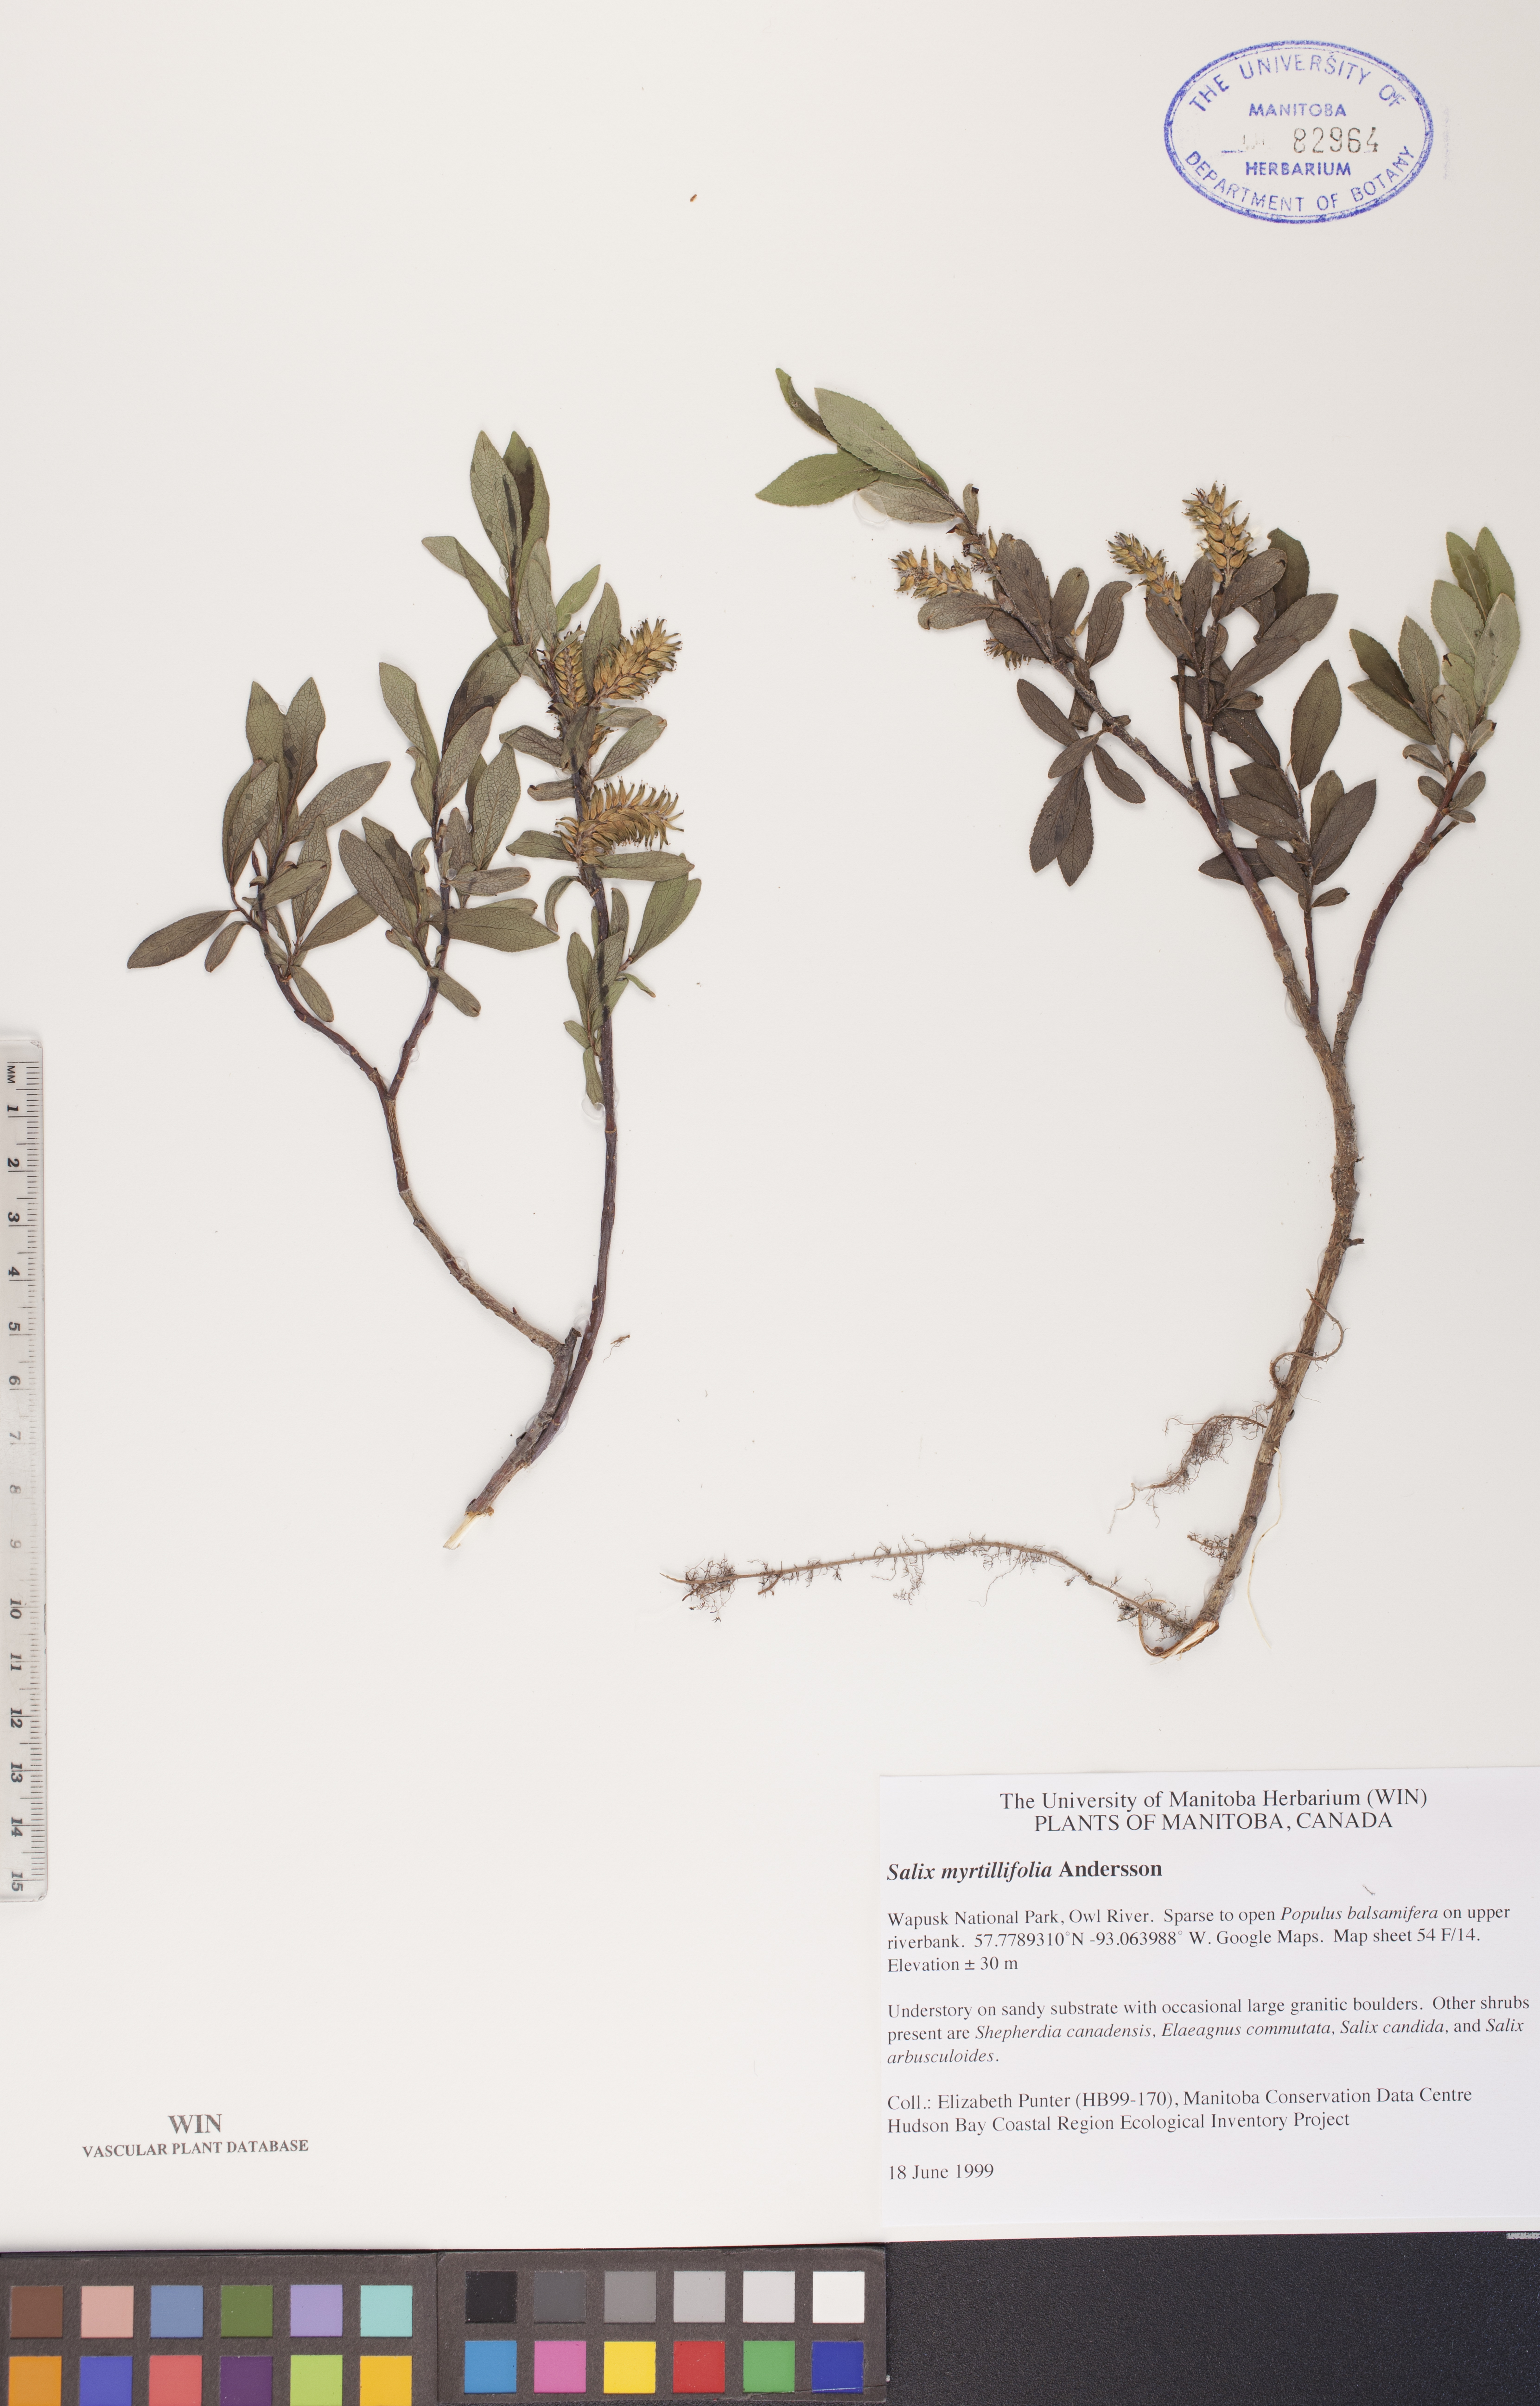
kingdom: Plantae
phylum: Tracheophyta
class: Magnoliopsida
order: Malpighiales
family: Salicaceae
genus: Salix
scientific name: Salix myrtillifolia
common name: Bilberry willow
